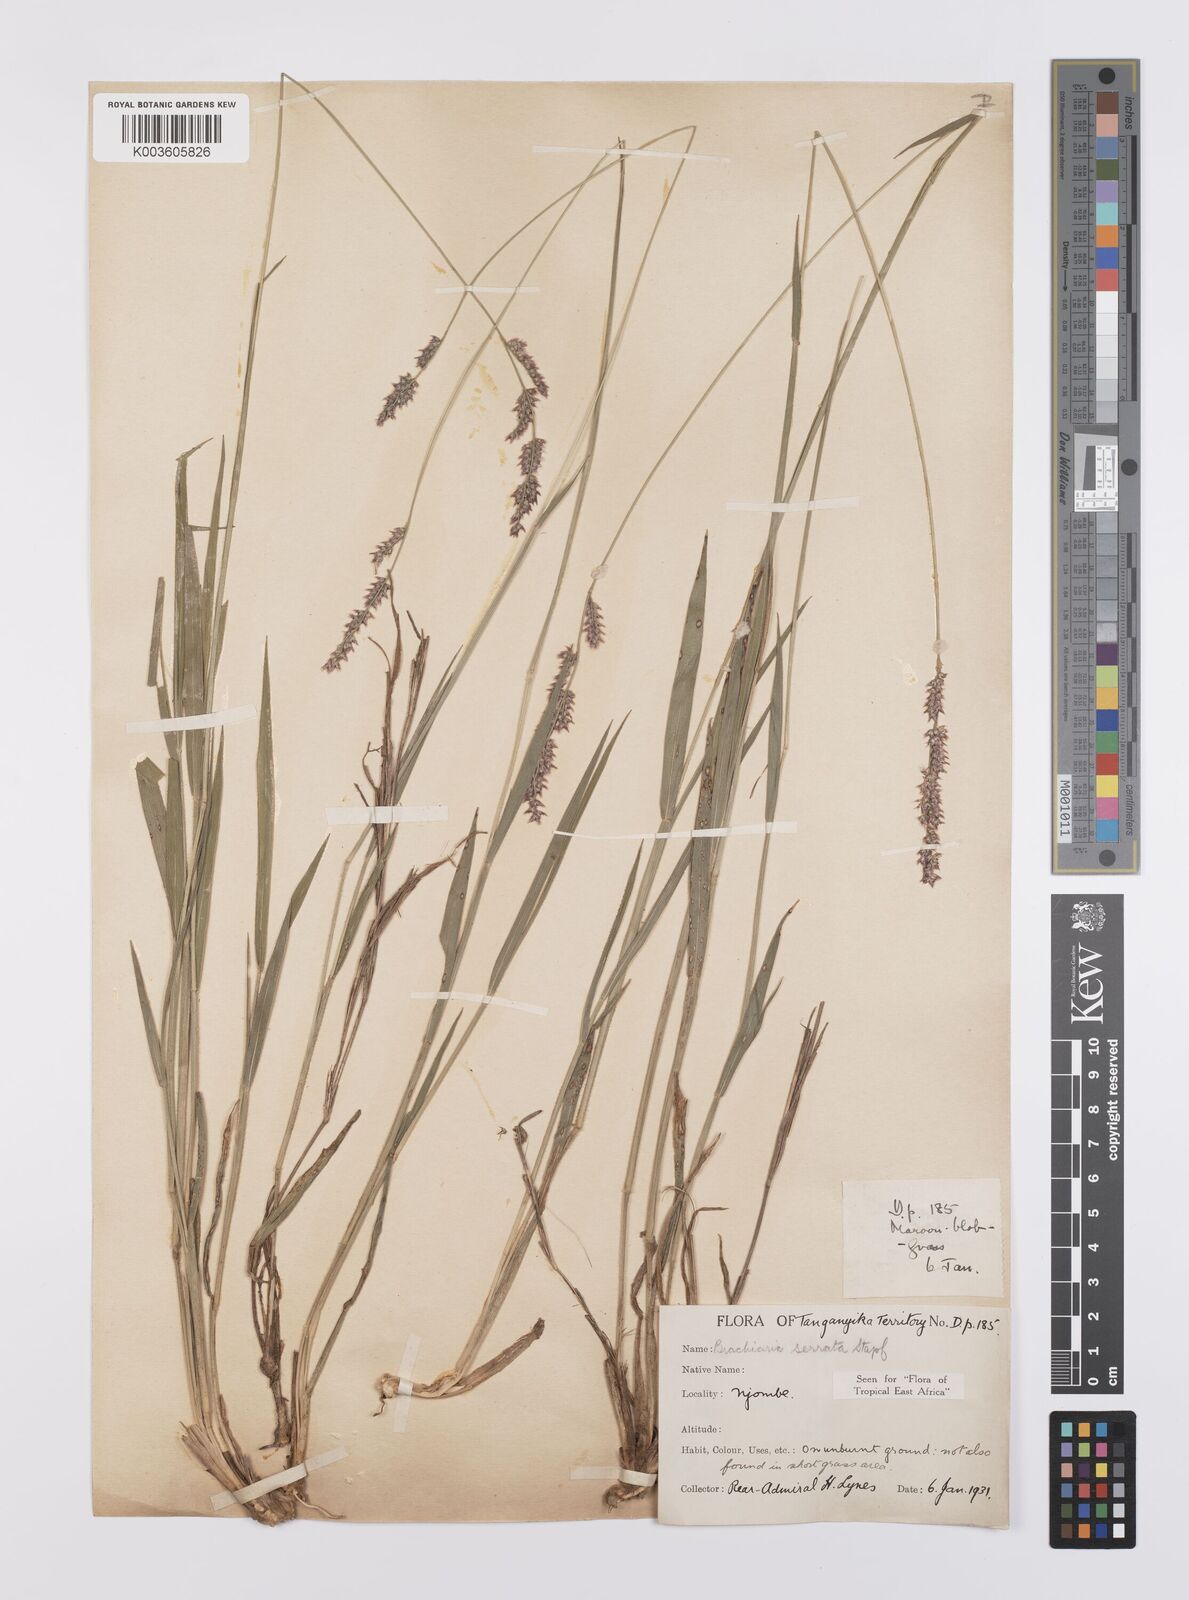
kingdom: Plantae
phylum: Tracheophyta
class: Liliopsida
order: Poales
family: Poaceae
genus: Urochloa
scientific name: Urochloa serrata
